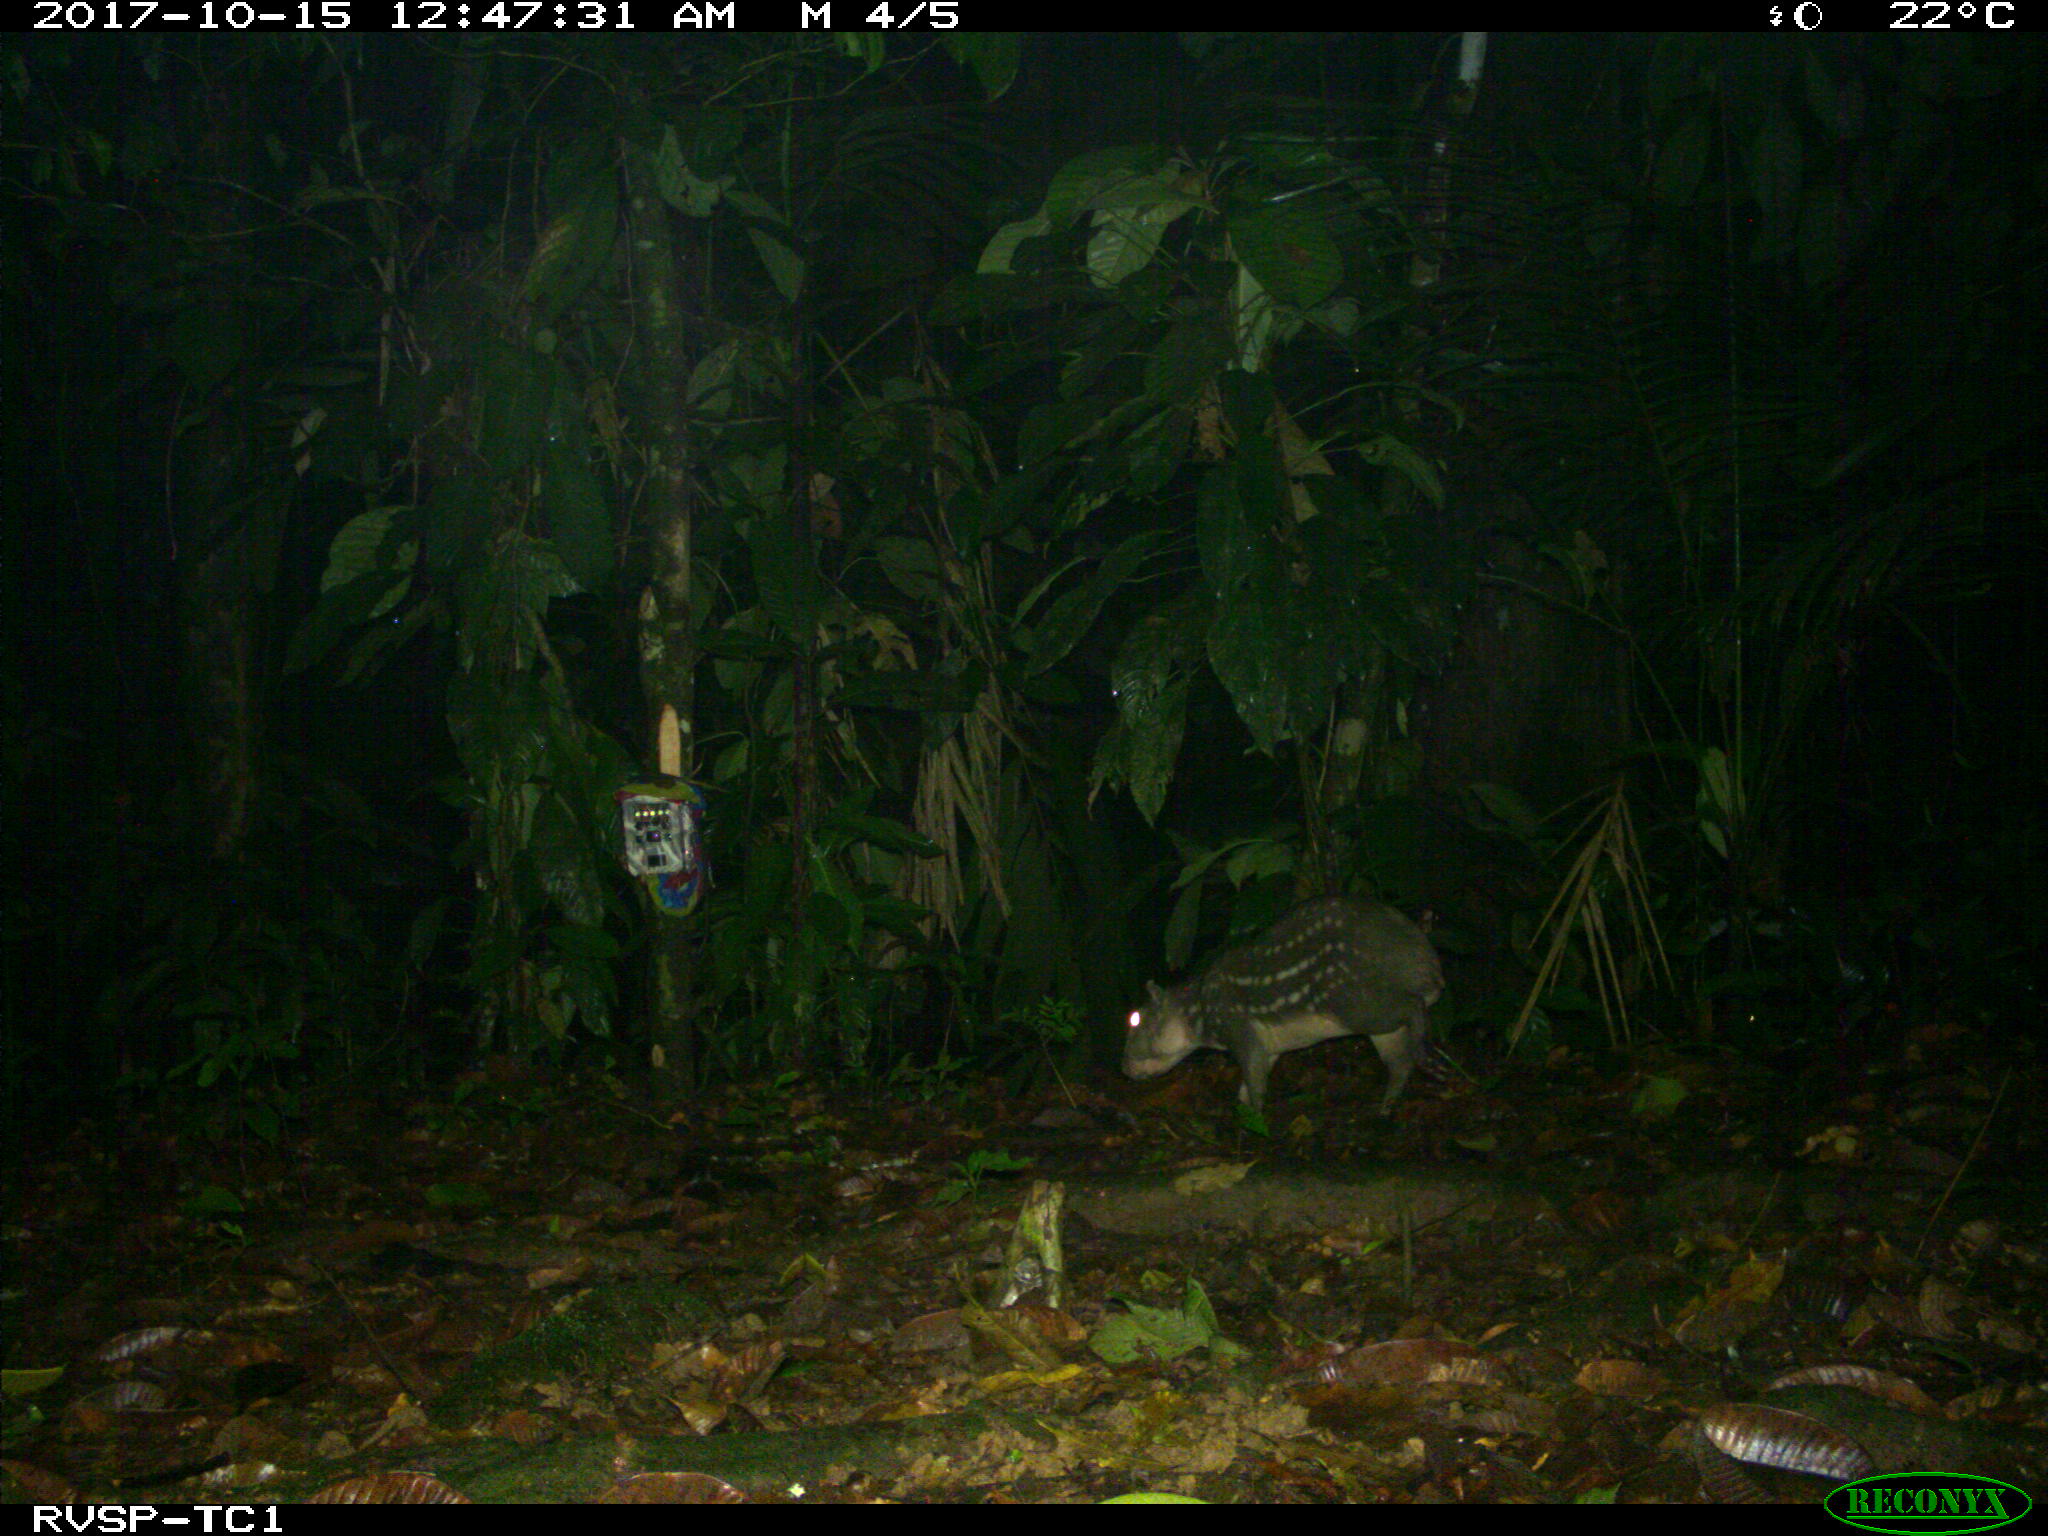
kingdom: Animalia
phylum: Chordata
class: Mammalia
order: Rodentia
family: Cuniculidae
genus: Cuniculus
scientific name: Cuniculus paca
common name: Lowland paca
